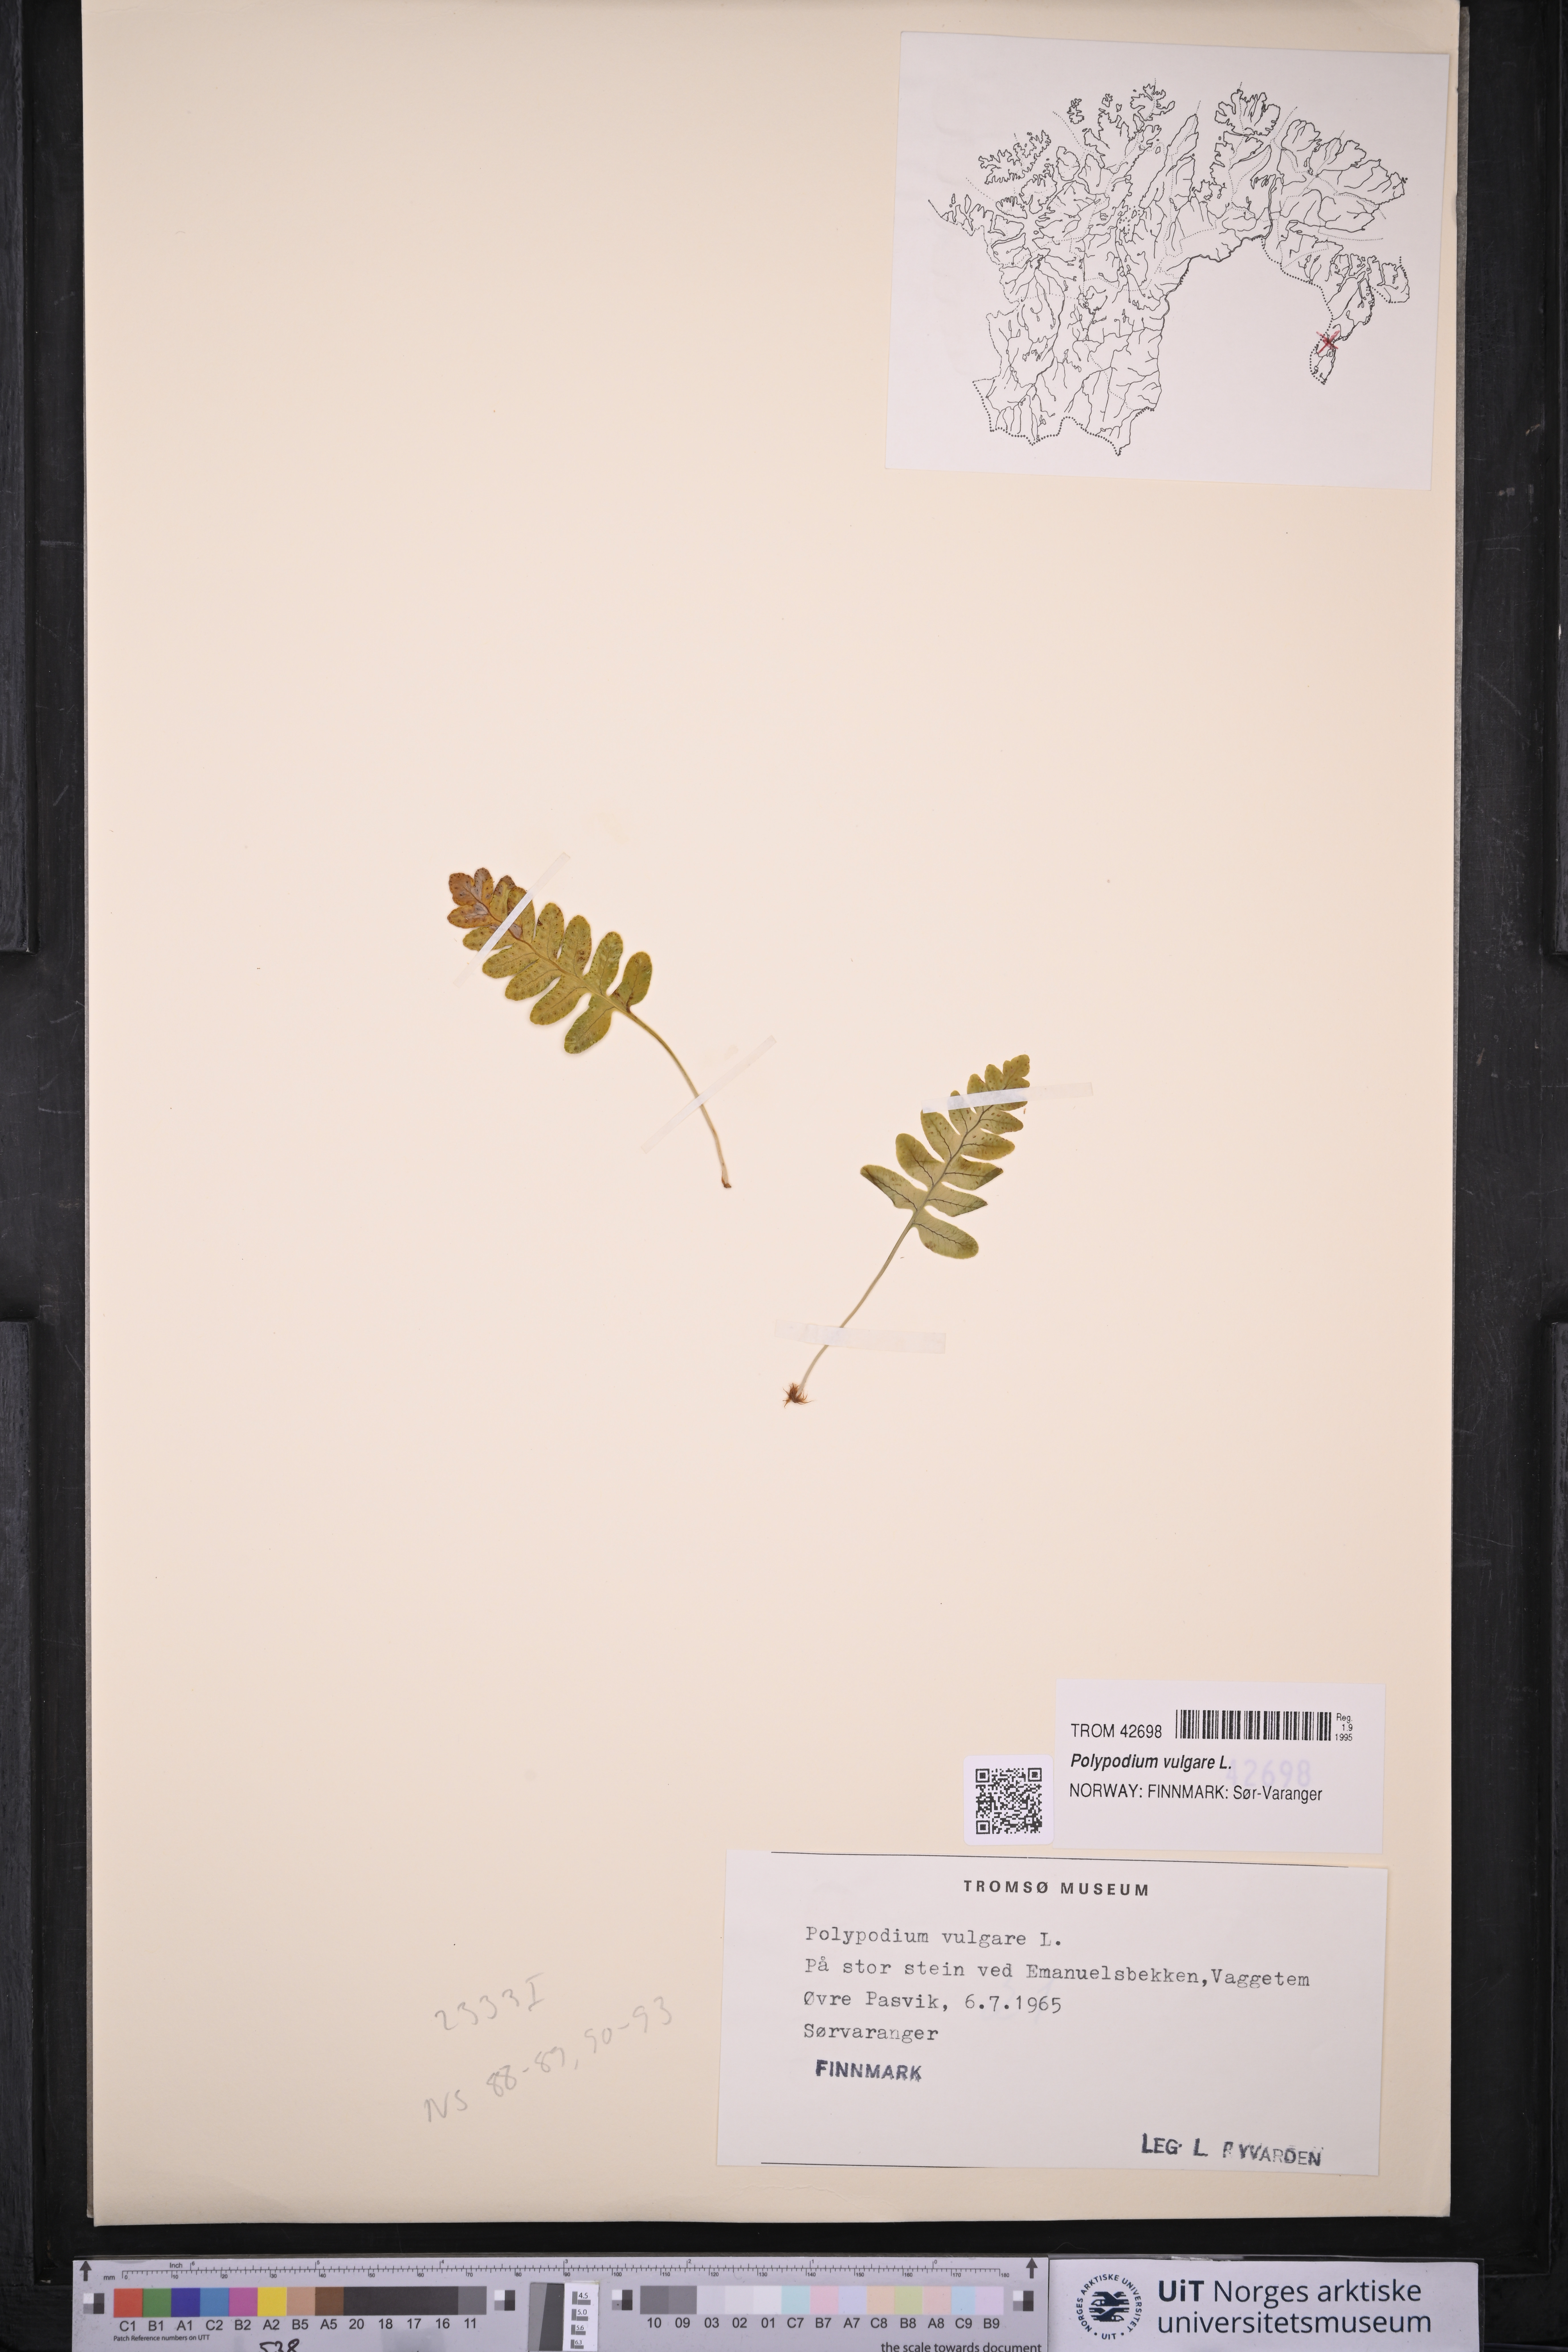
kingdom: Plantae
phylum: Tracheophyta
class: Polypodiopsida
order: Polypodiales
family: Polypodiaceae
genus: Polypodium
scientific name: Polypodium vulgare
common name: Common polypody
